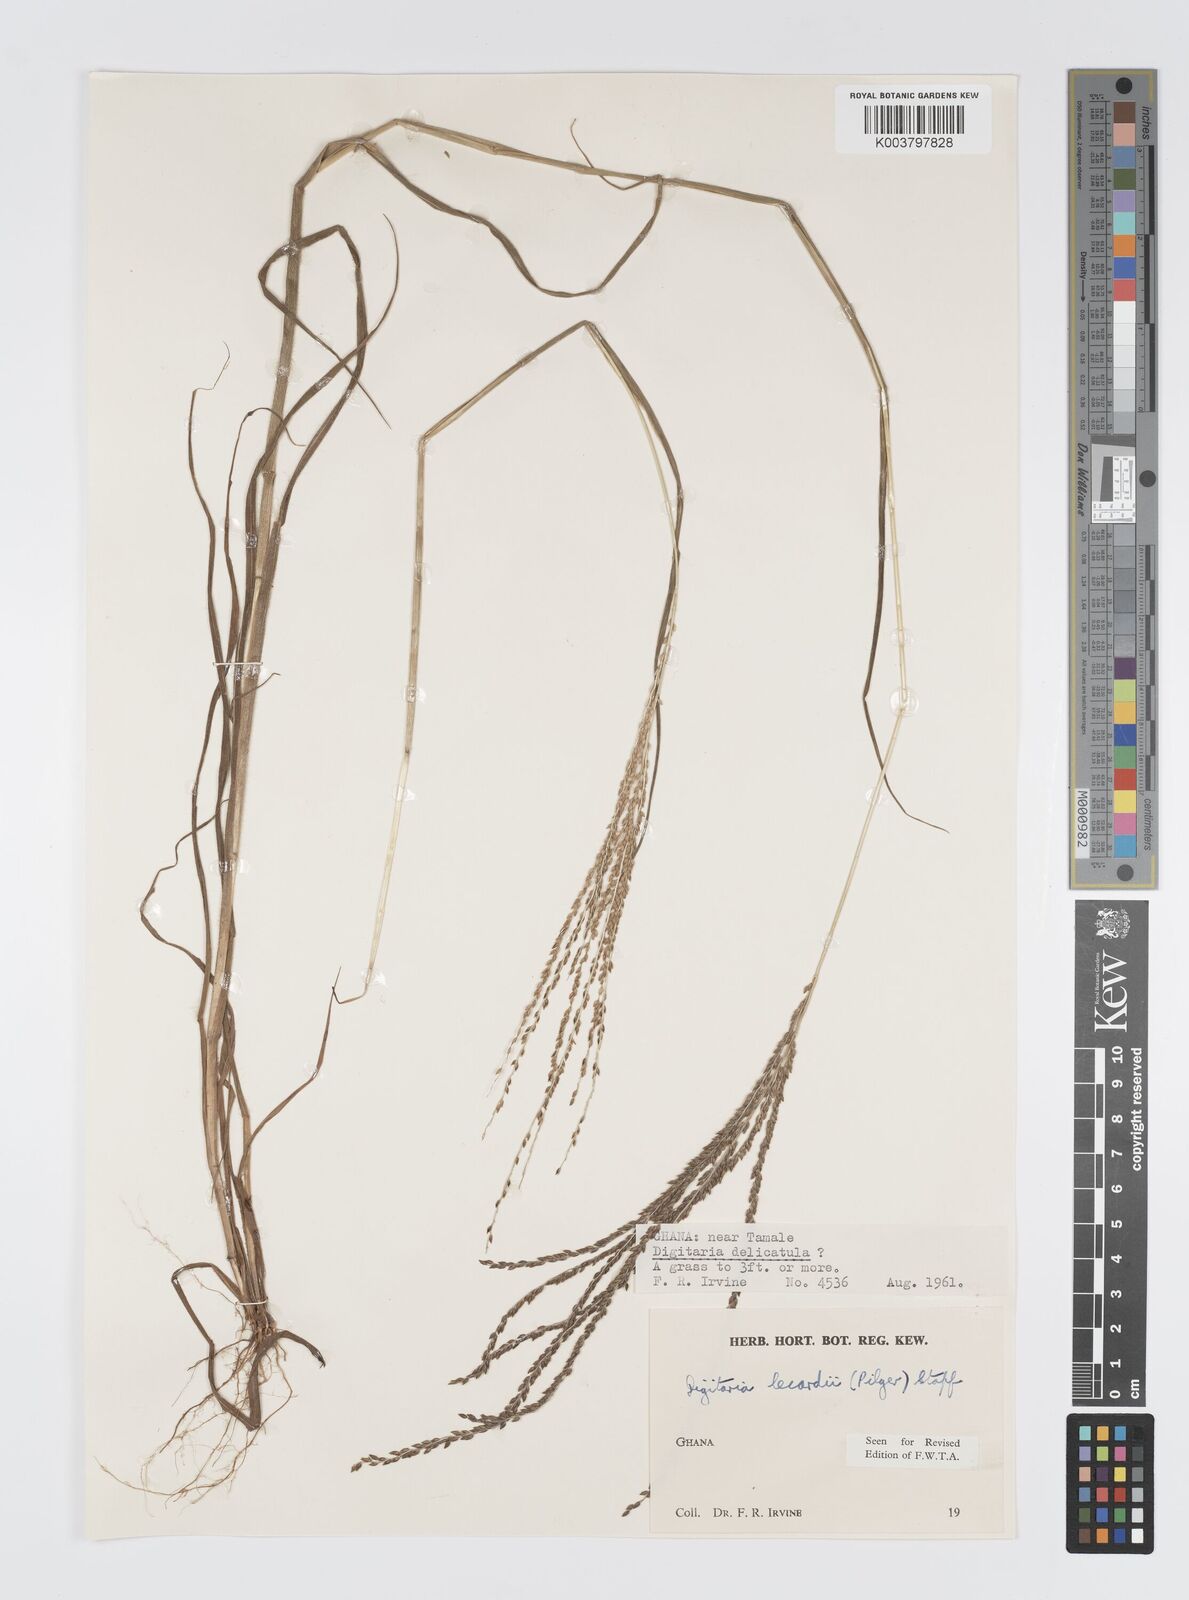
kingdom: Plantae
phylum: Tracheophyta
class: Liliopsida
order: Poales
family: Poaceae
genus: Digitaria
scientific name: Digitaria
